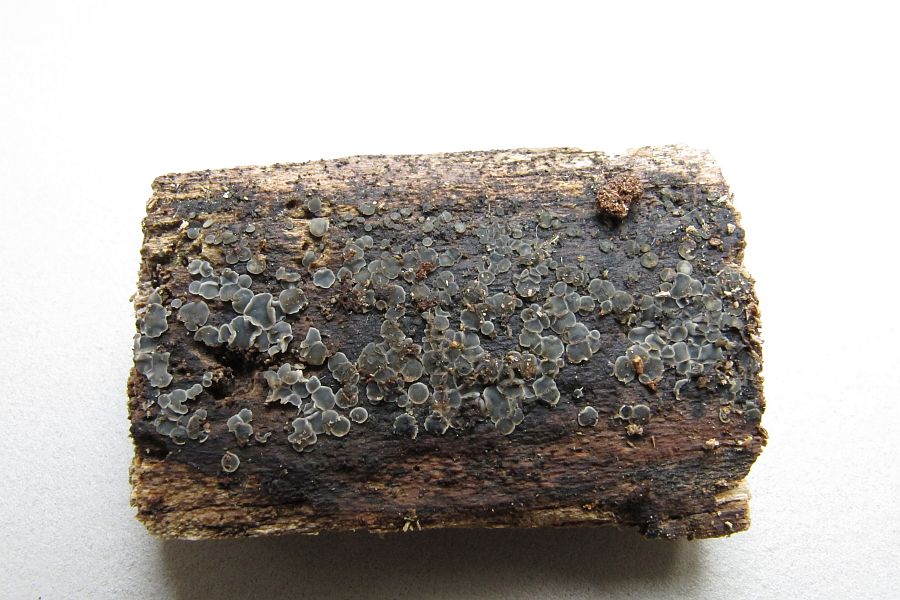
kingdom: Fungi
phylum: Ascomycota
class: Leotiomycetes
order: Helotiales
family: Mollisiaceae
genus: Mollisia
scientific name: Mollisia cinerella
